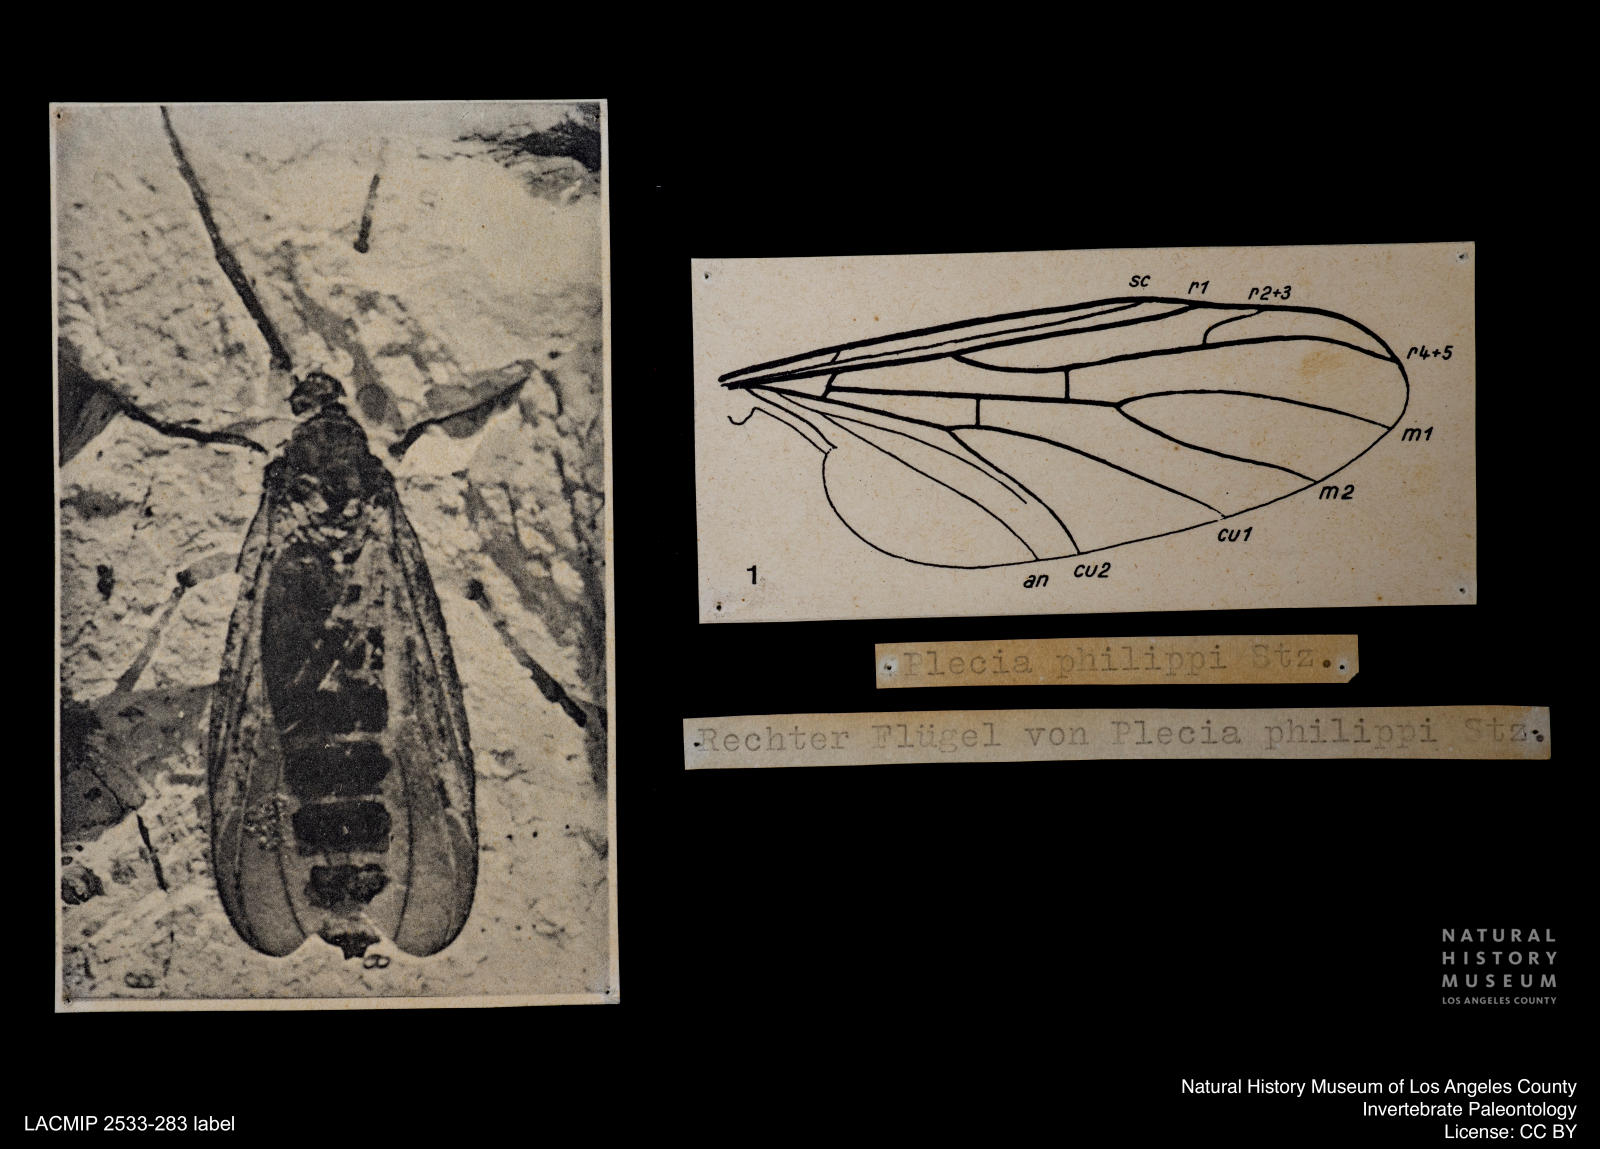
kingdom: Animalia
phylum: Arthropoda
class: Insecta
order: Diptera
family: Bibionidae
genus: Plecia
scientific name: Plecia collossea
